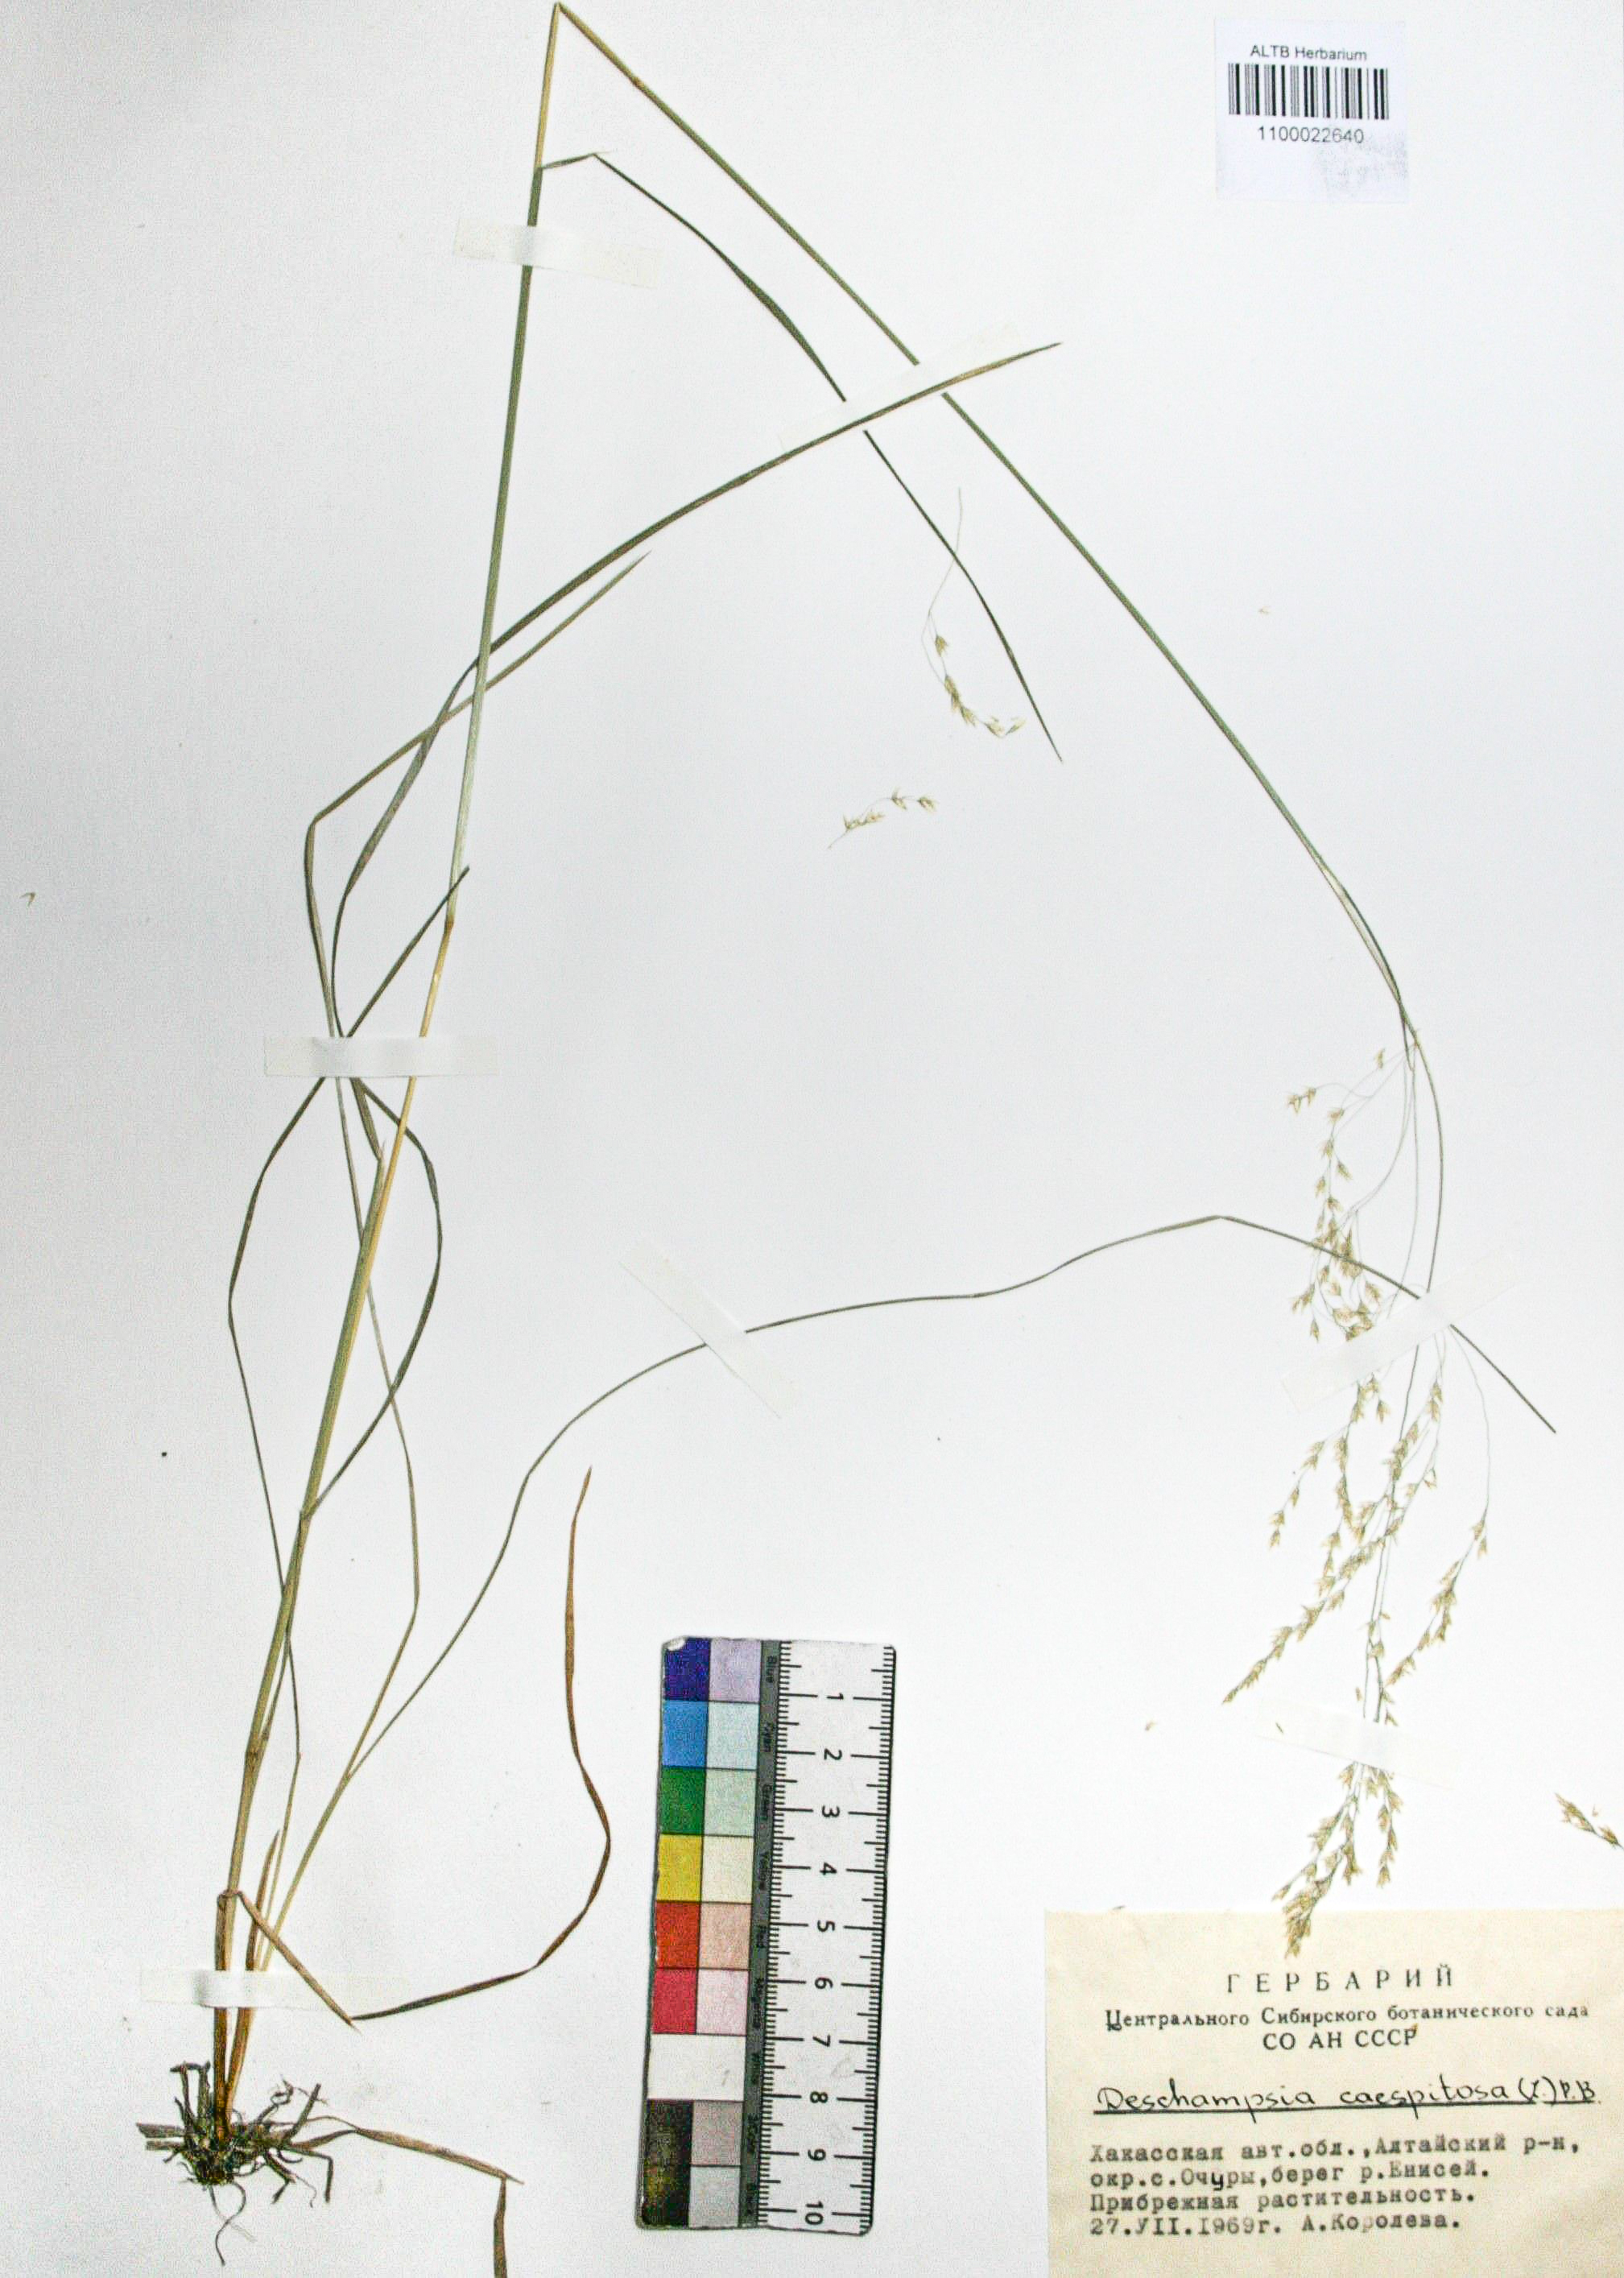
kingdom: Plantae
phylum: Tracheophyta
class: Liliopsida
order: Poales
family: Poaceae
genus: Deschampsia
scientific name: Deschampsia cespitosa
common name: Tufted hair-grass
